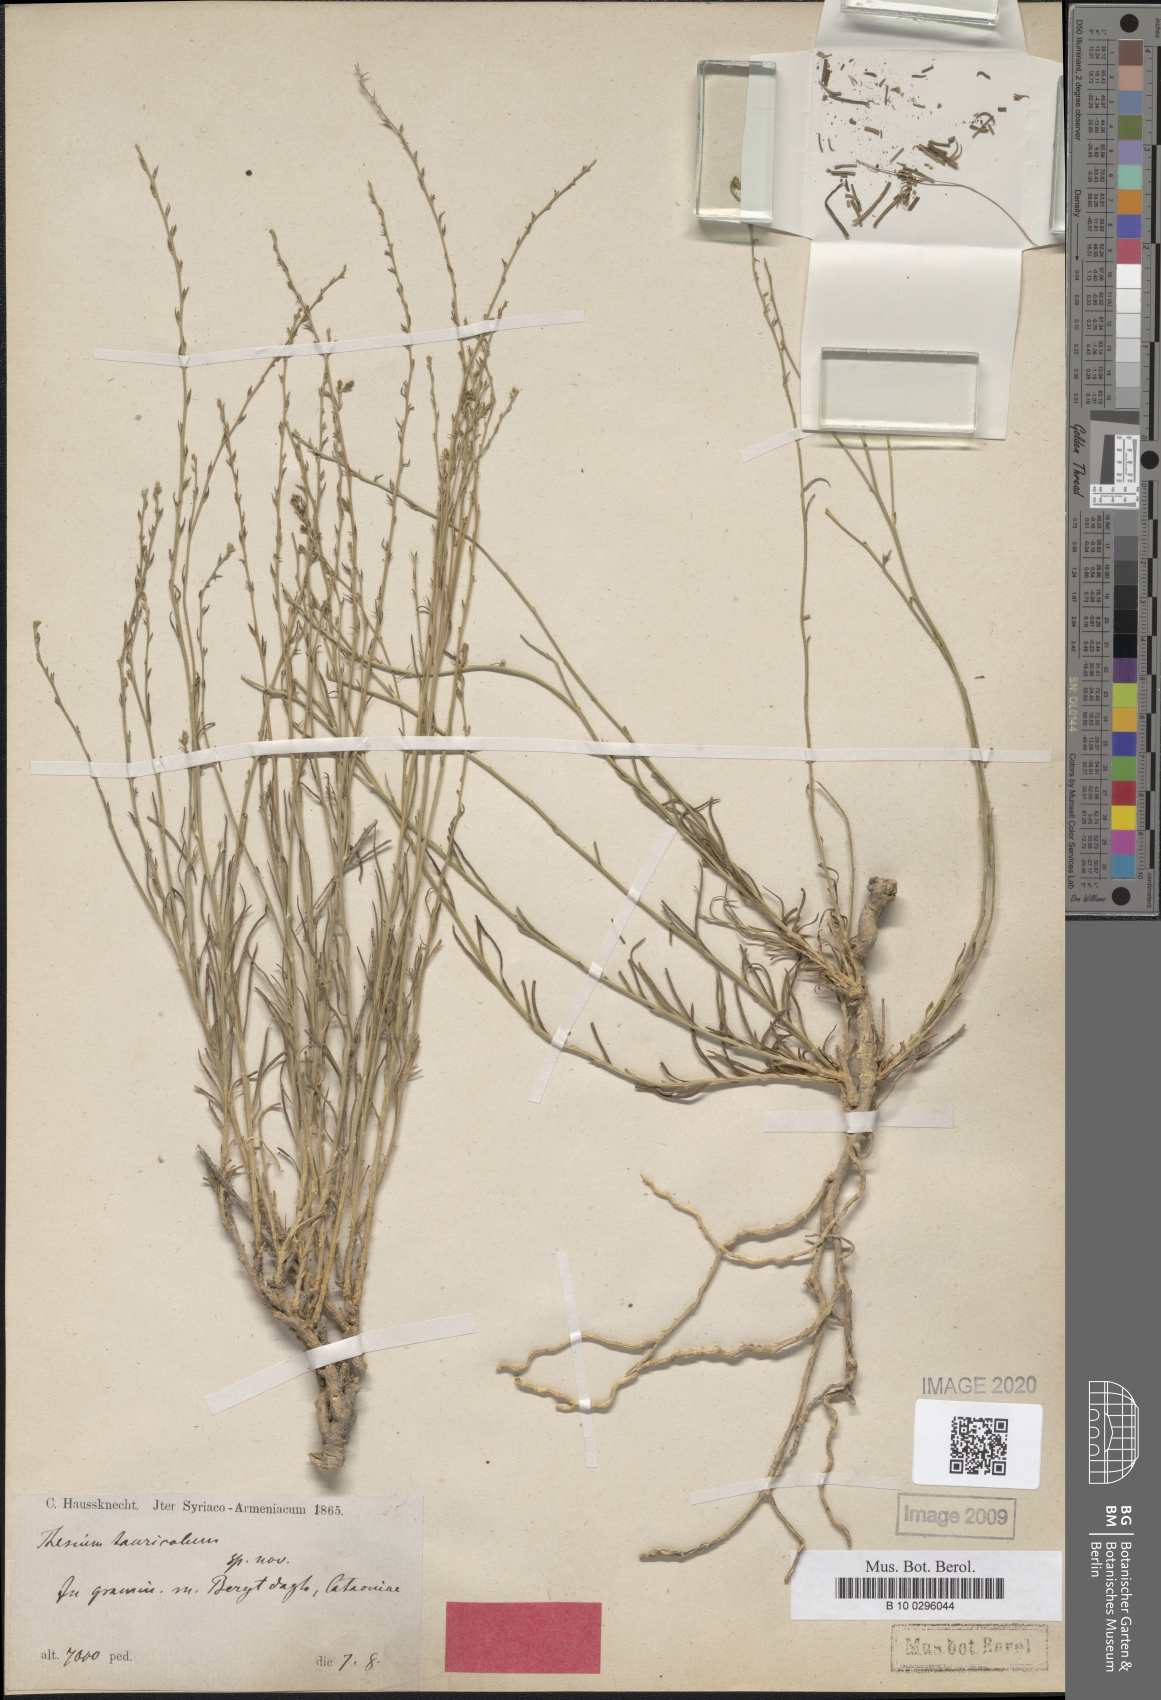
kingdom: Plantae
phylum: Tracheophyta
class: Magnoliopsida
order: Santalales
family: Thesiaceae
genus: Thesium
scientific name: Thesium tauricolum
